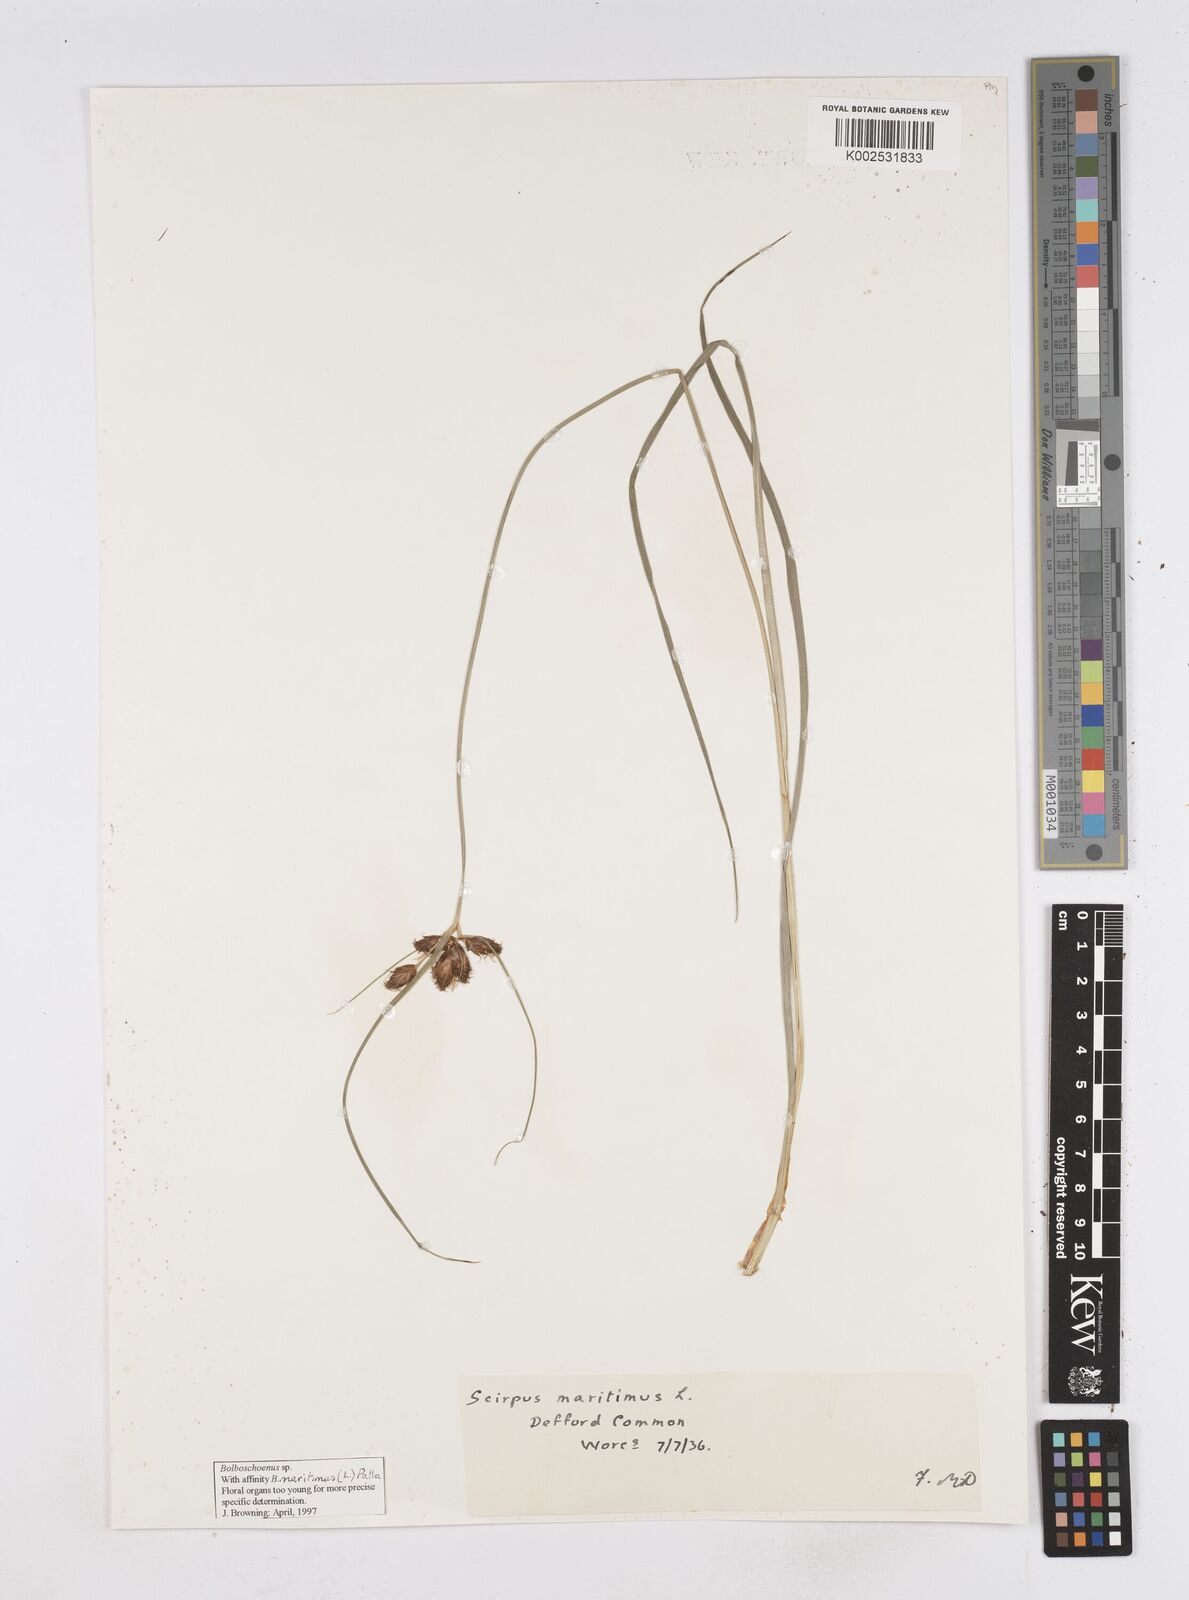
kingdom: Plantae
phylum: Tracheophyta
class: Liliopsida
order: Poales
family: Cyperaceae
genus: Bolboschoenus
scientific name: Bolboschoenus maritimus
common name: Sea club-rush
